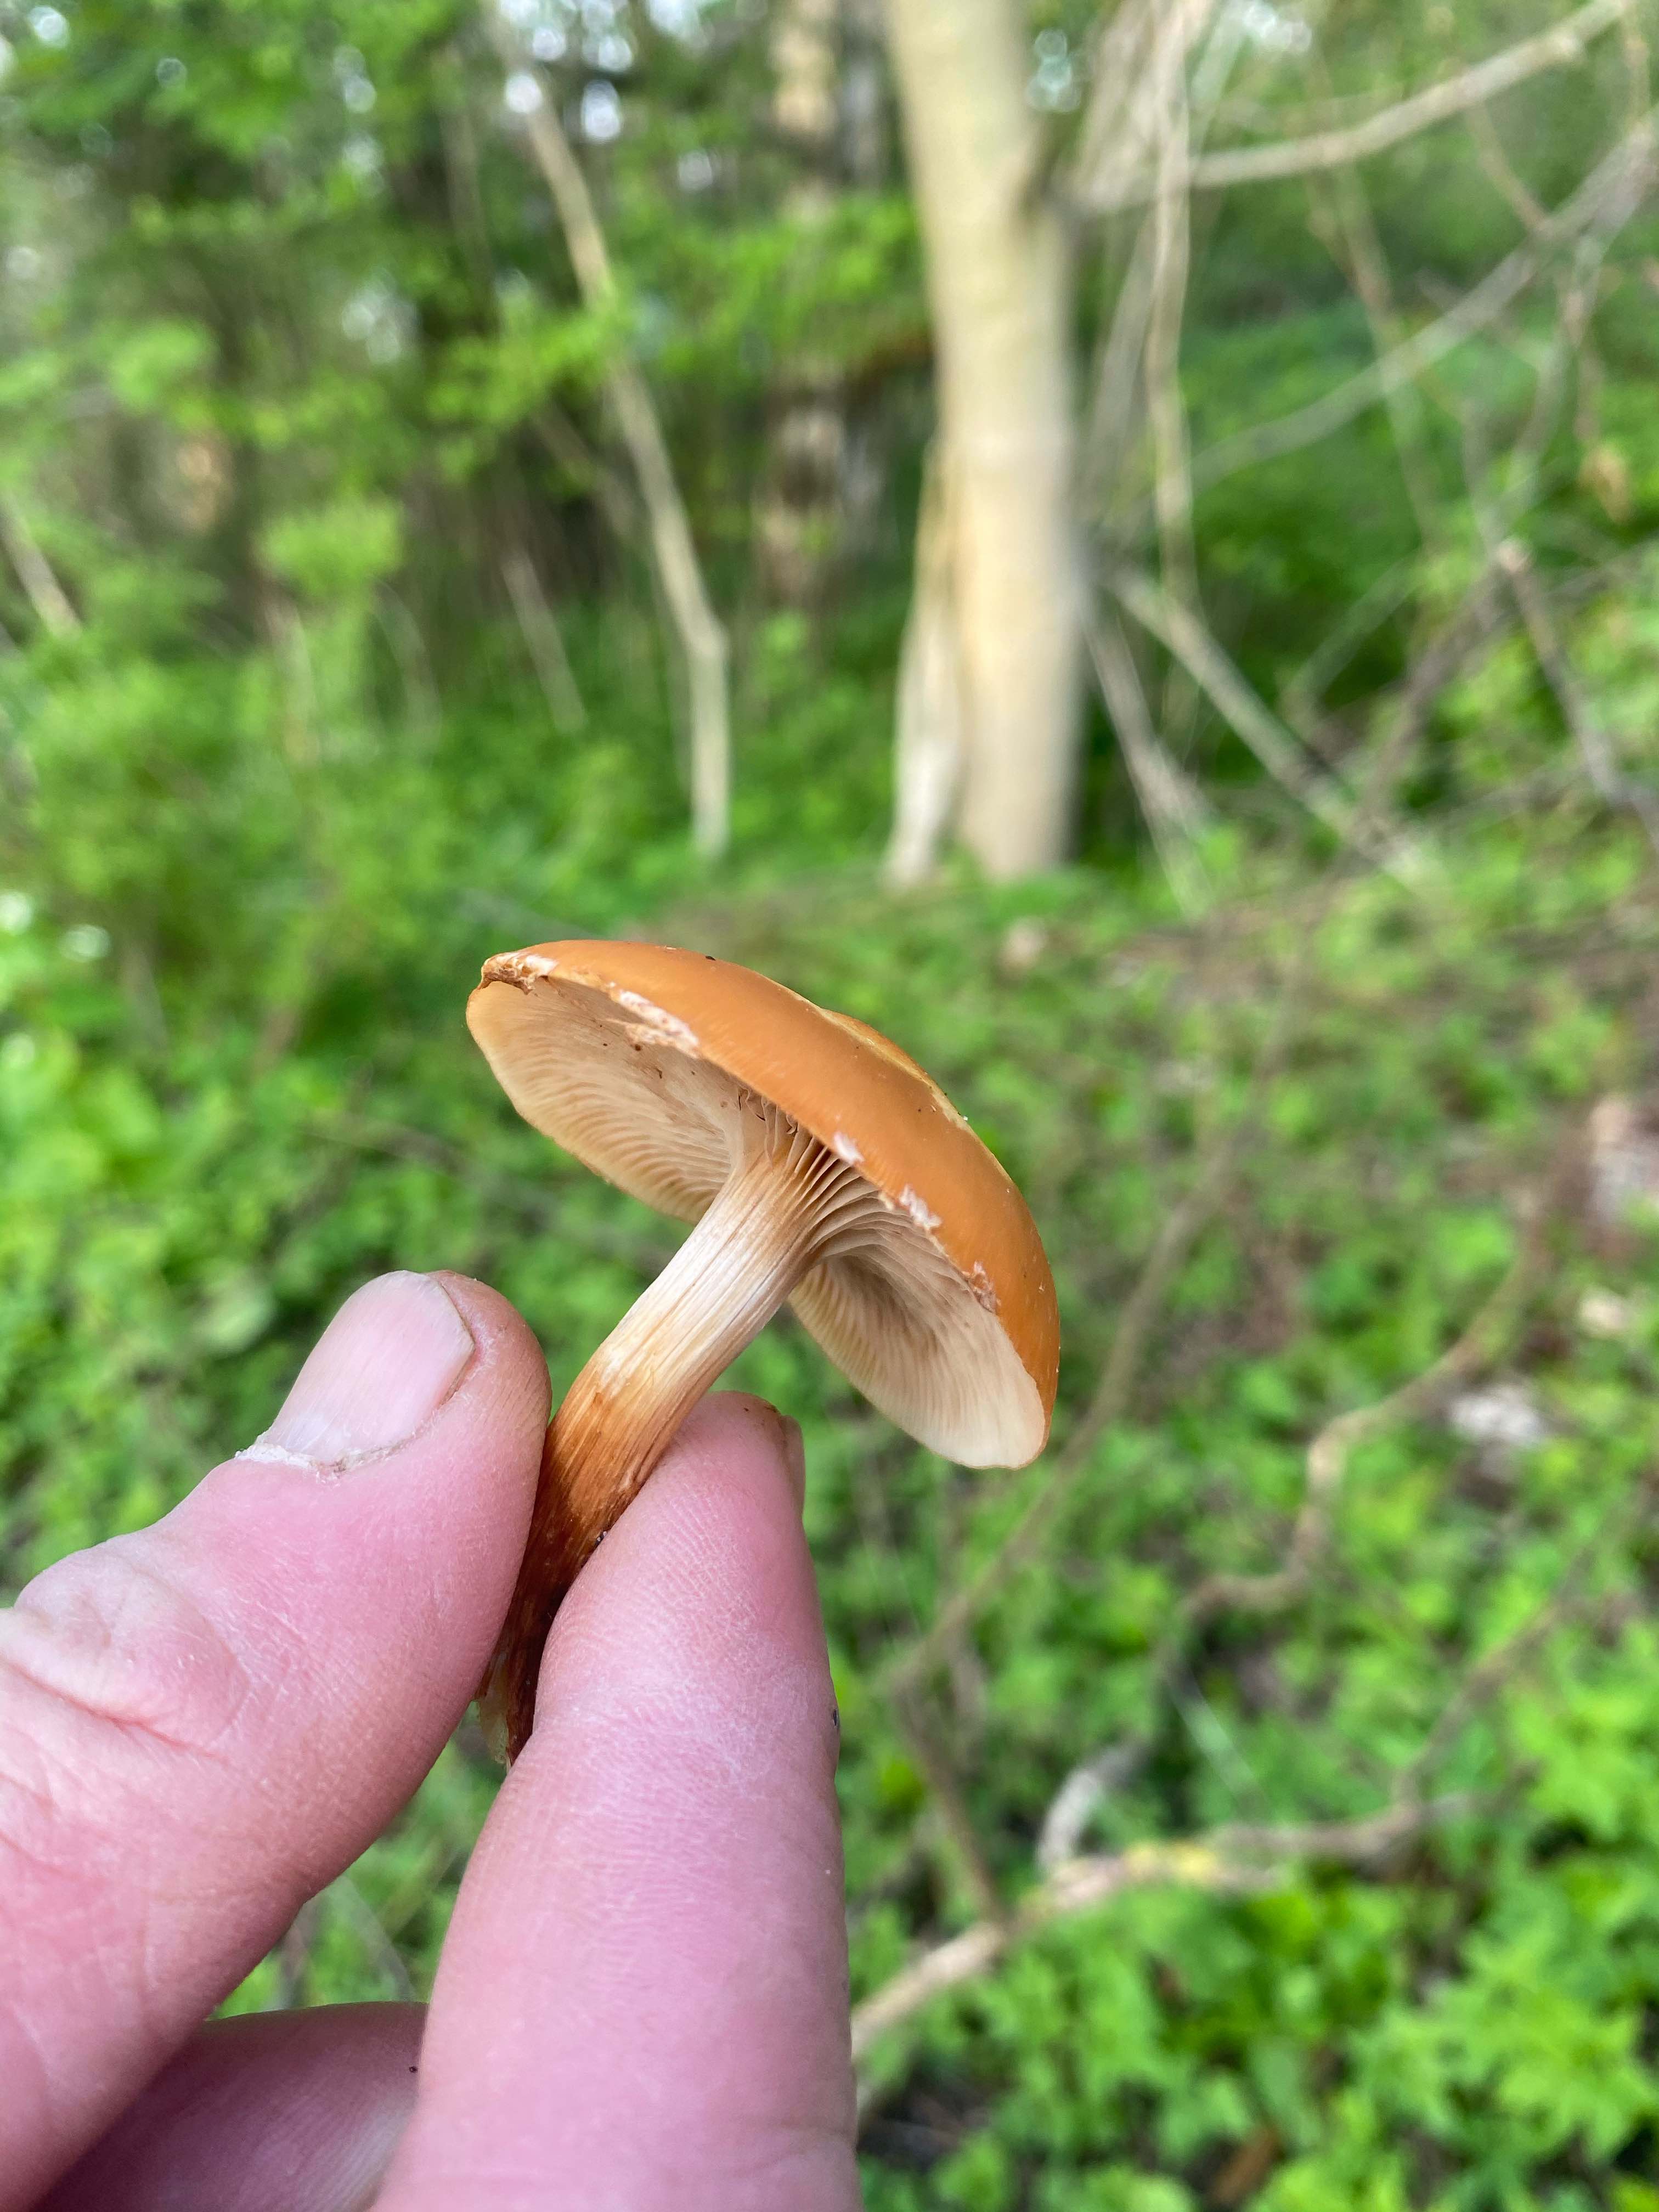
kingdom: Fungi
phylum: Basidiomycota
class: Agaricomycetes
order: Agaricales
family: Strophariaceae
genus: Kuehneromyces
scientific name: Kuehneromyces mutabilis
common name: foranderlig skælhat
